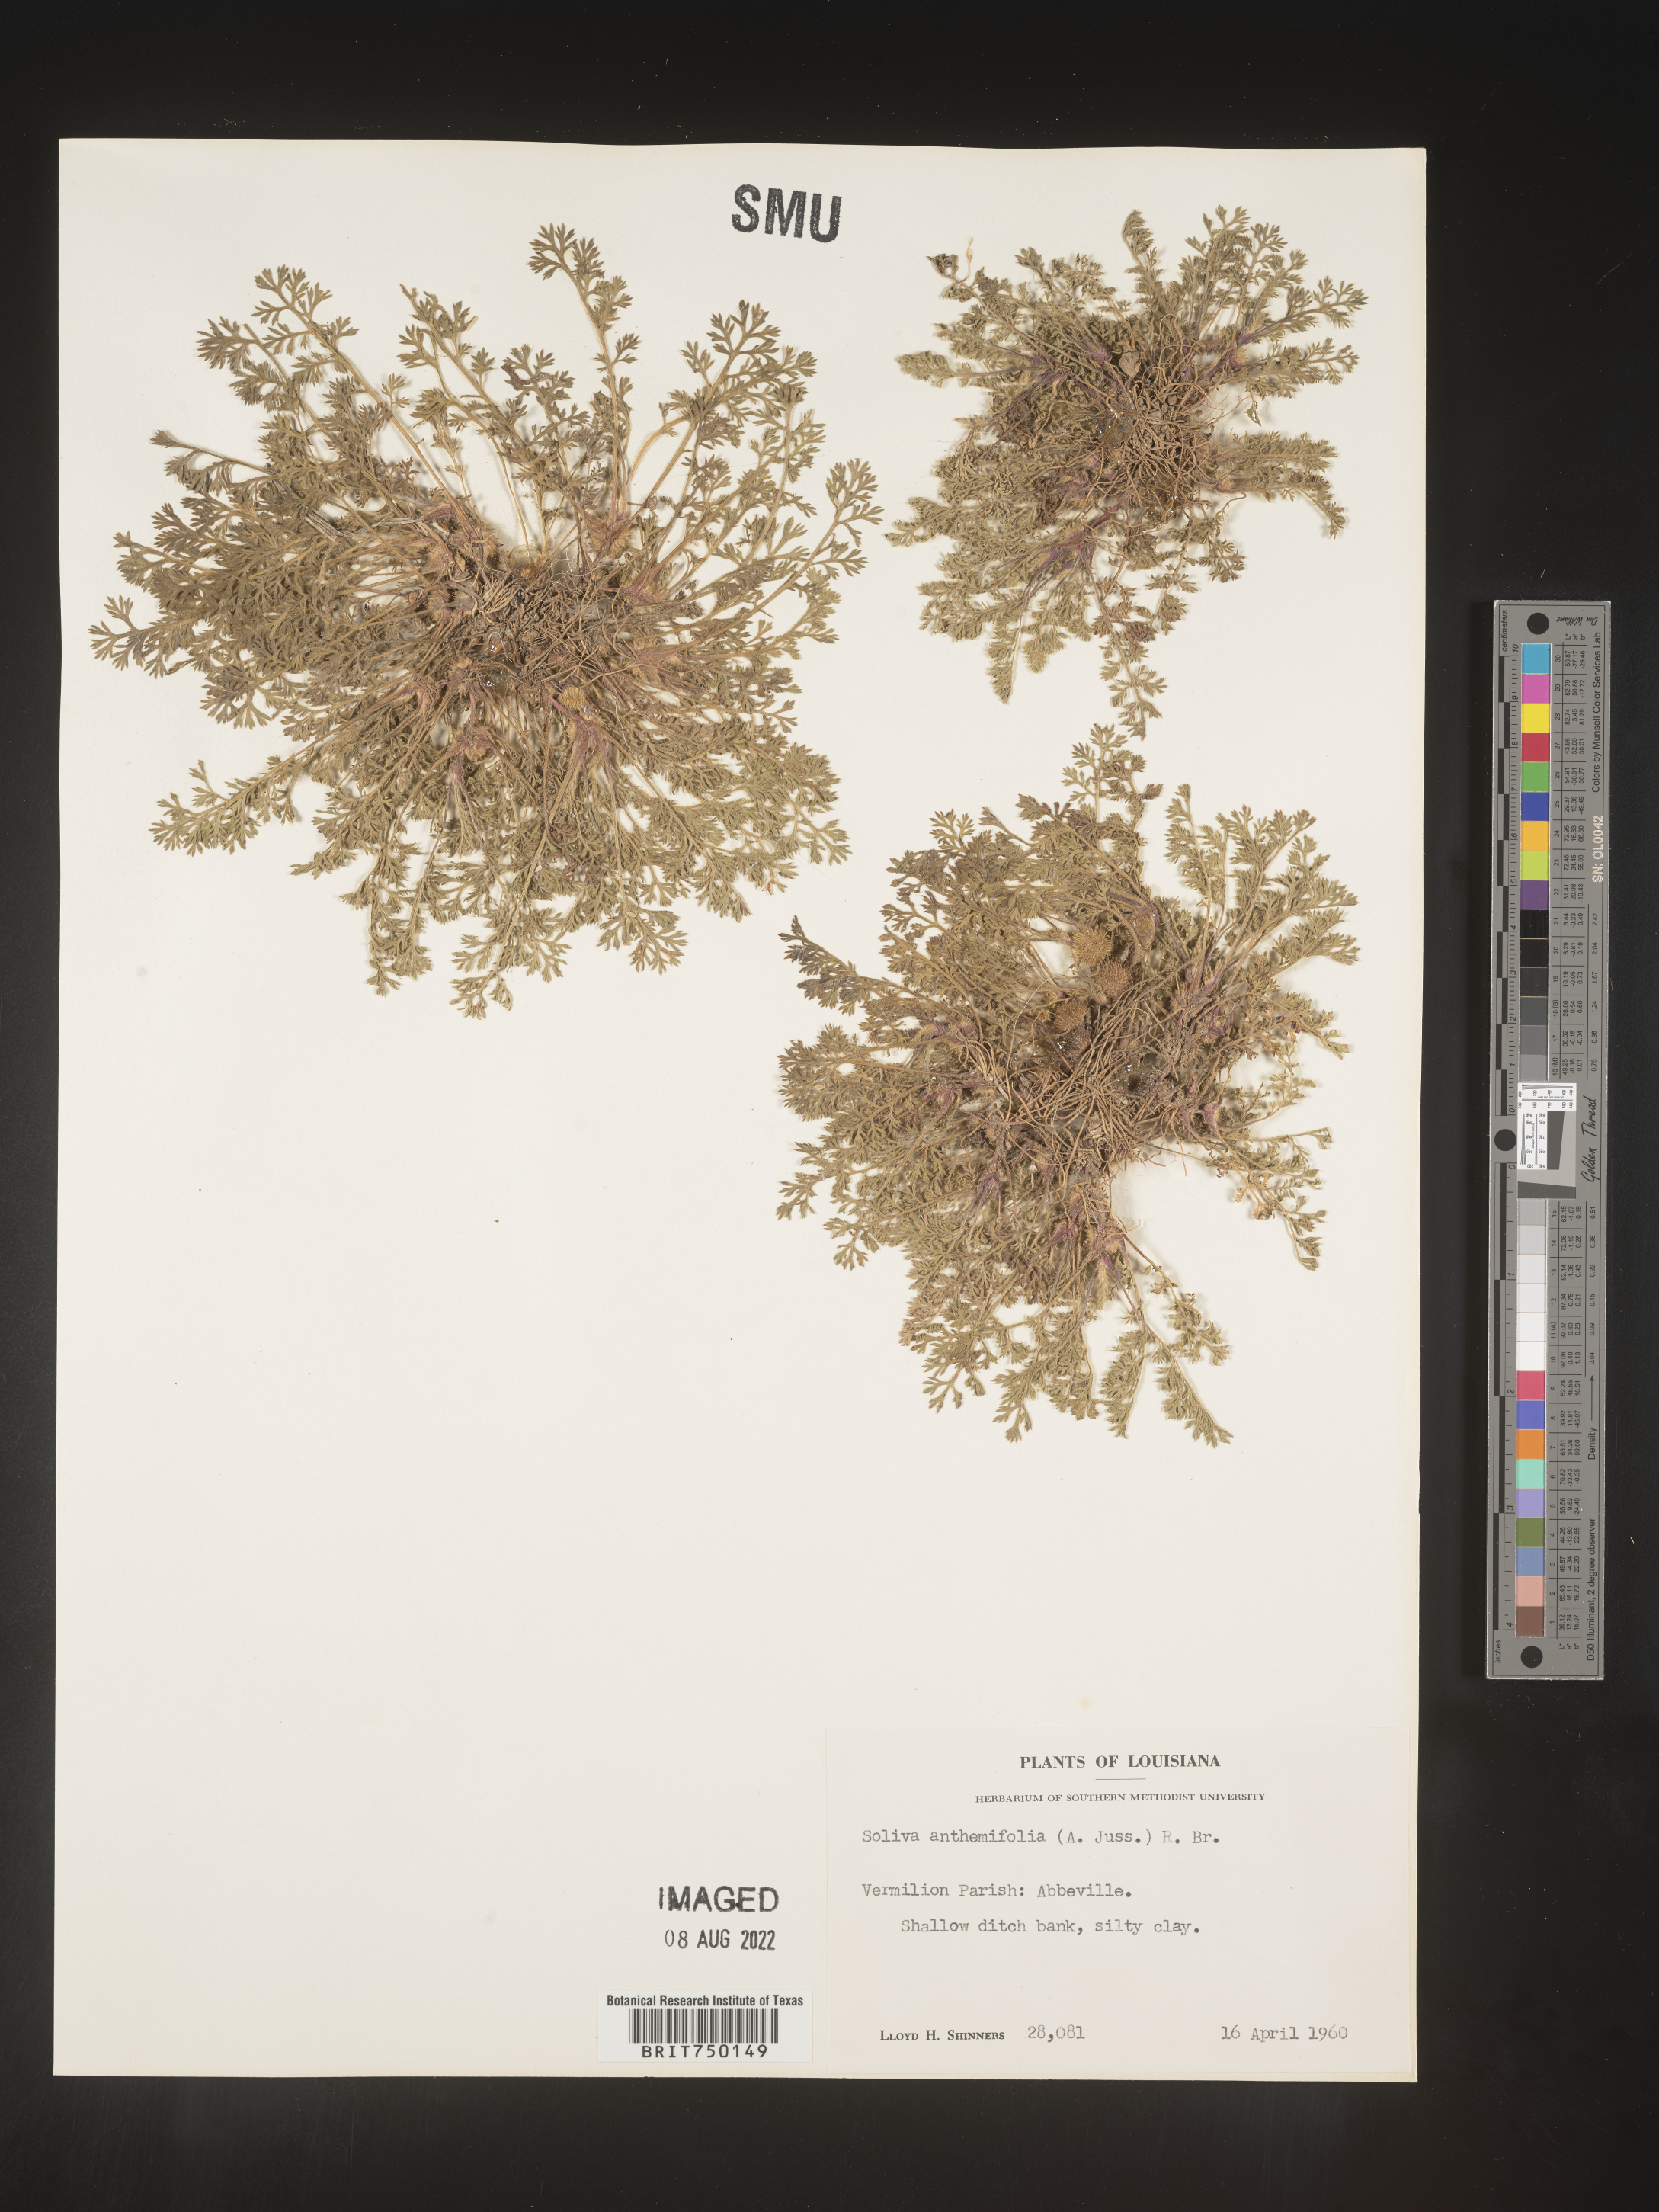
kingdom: Plantae
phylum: Tracheophyta
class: Magnoliopsida
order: Asterales
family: Asteraceae
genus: Soliva
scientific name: Soliva
